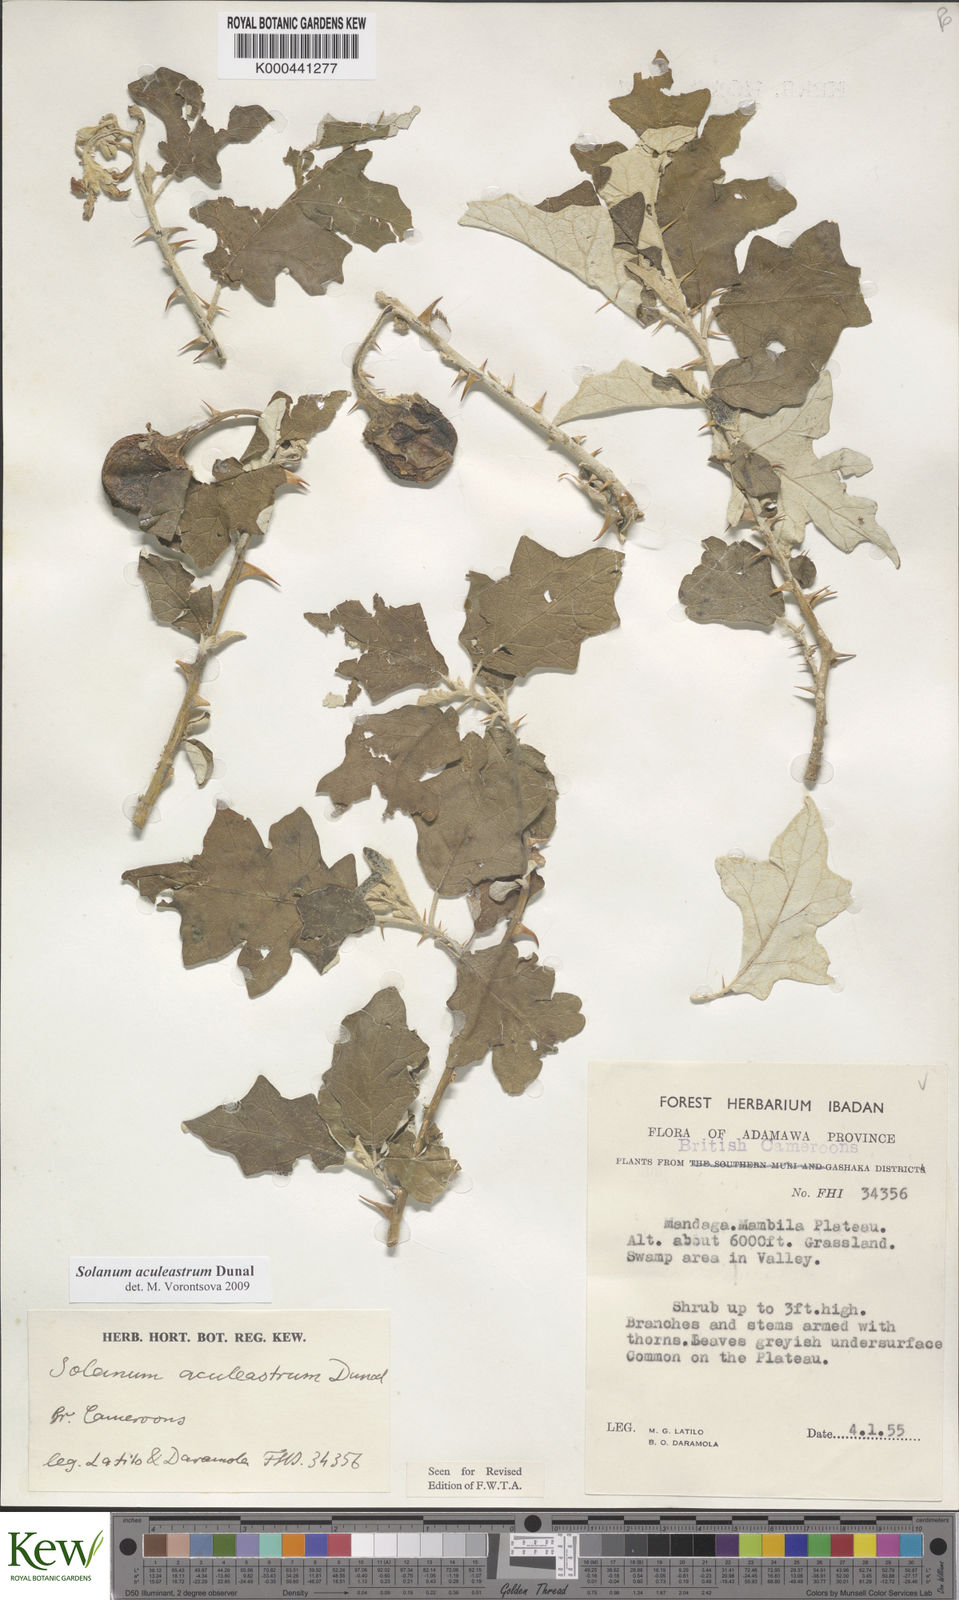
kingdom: Plantae
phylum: Tracheophyta
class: Magnoliopsida
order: Solanales
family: Solanaceae
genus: Solanum
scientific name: Solanum aculeastrum
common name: Goat bitter-apple
